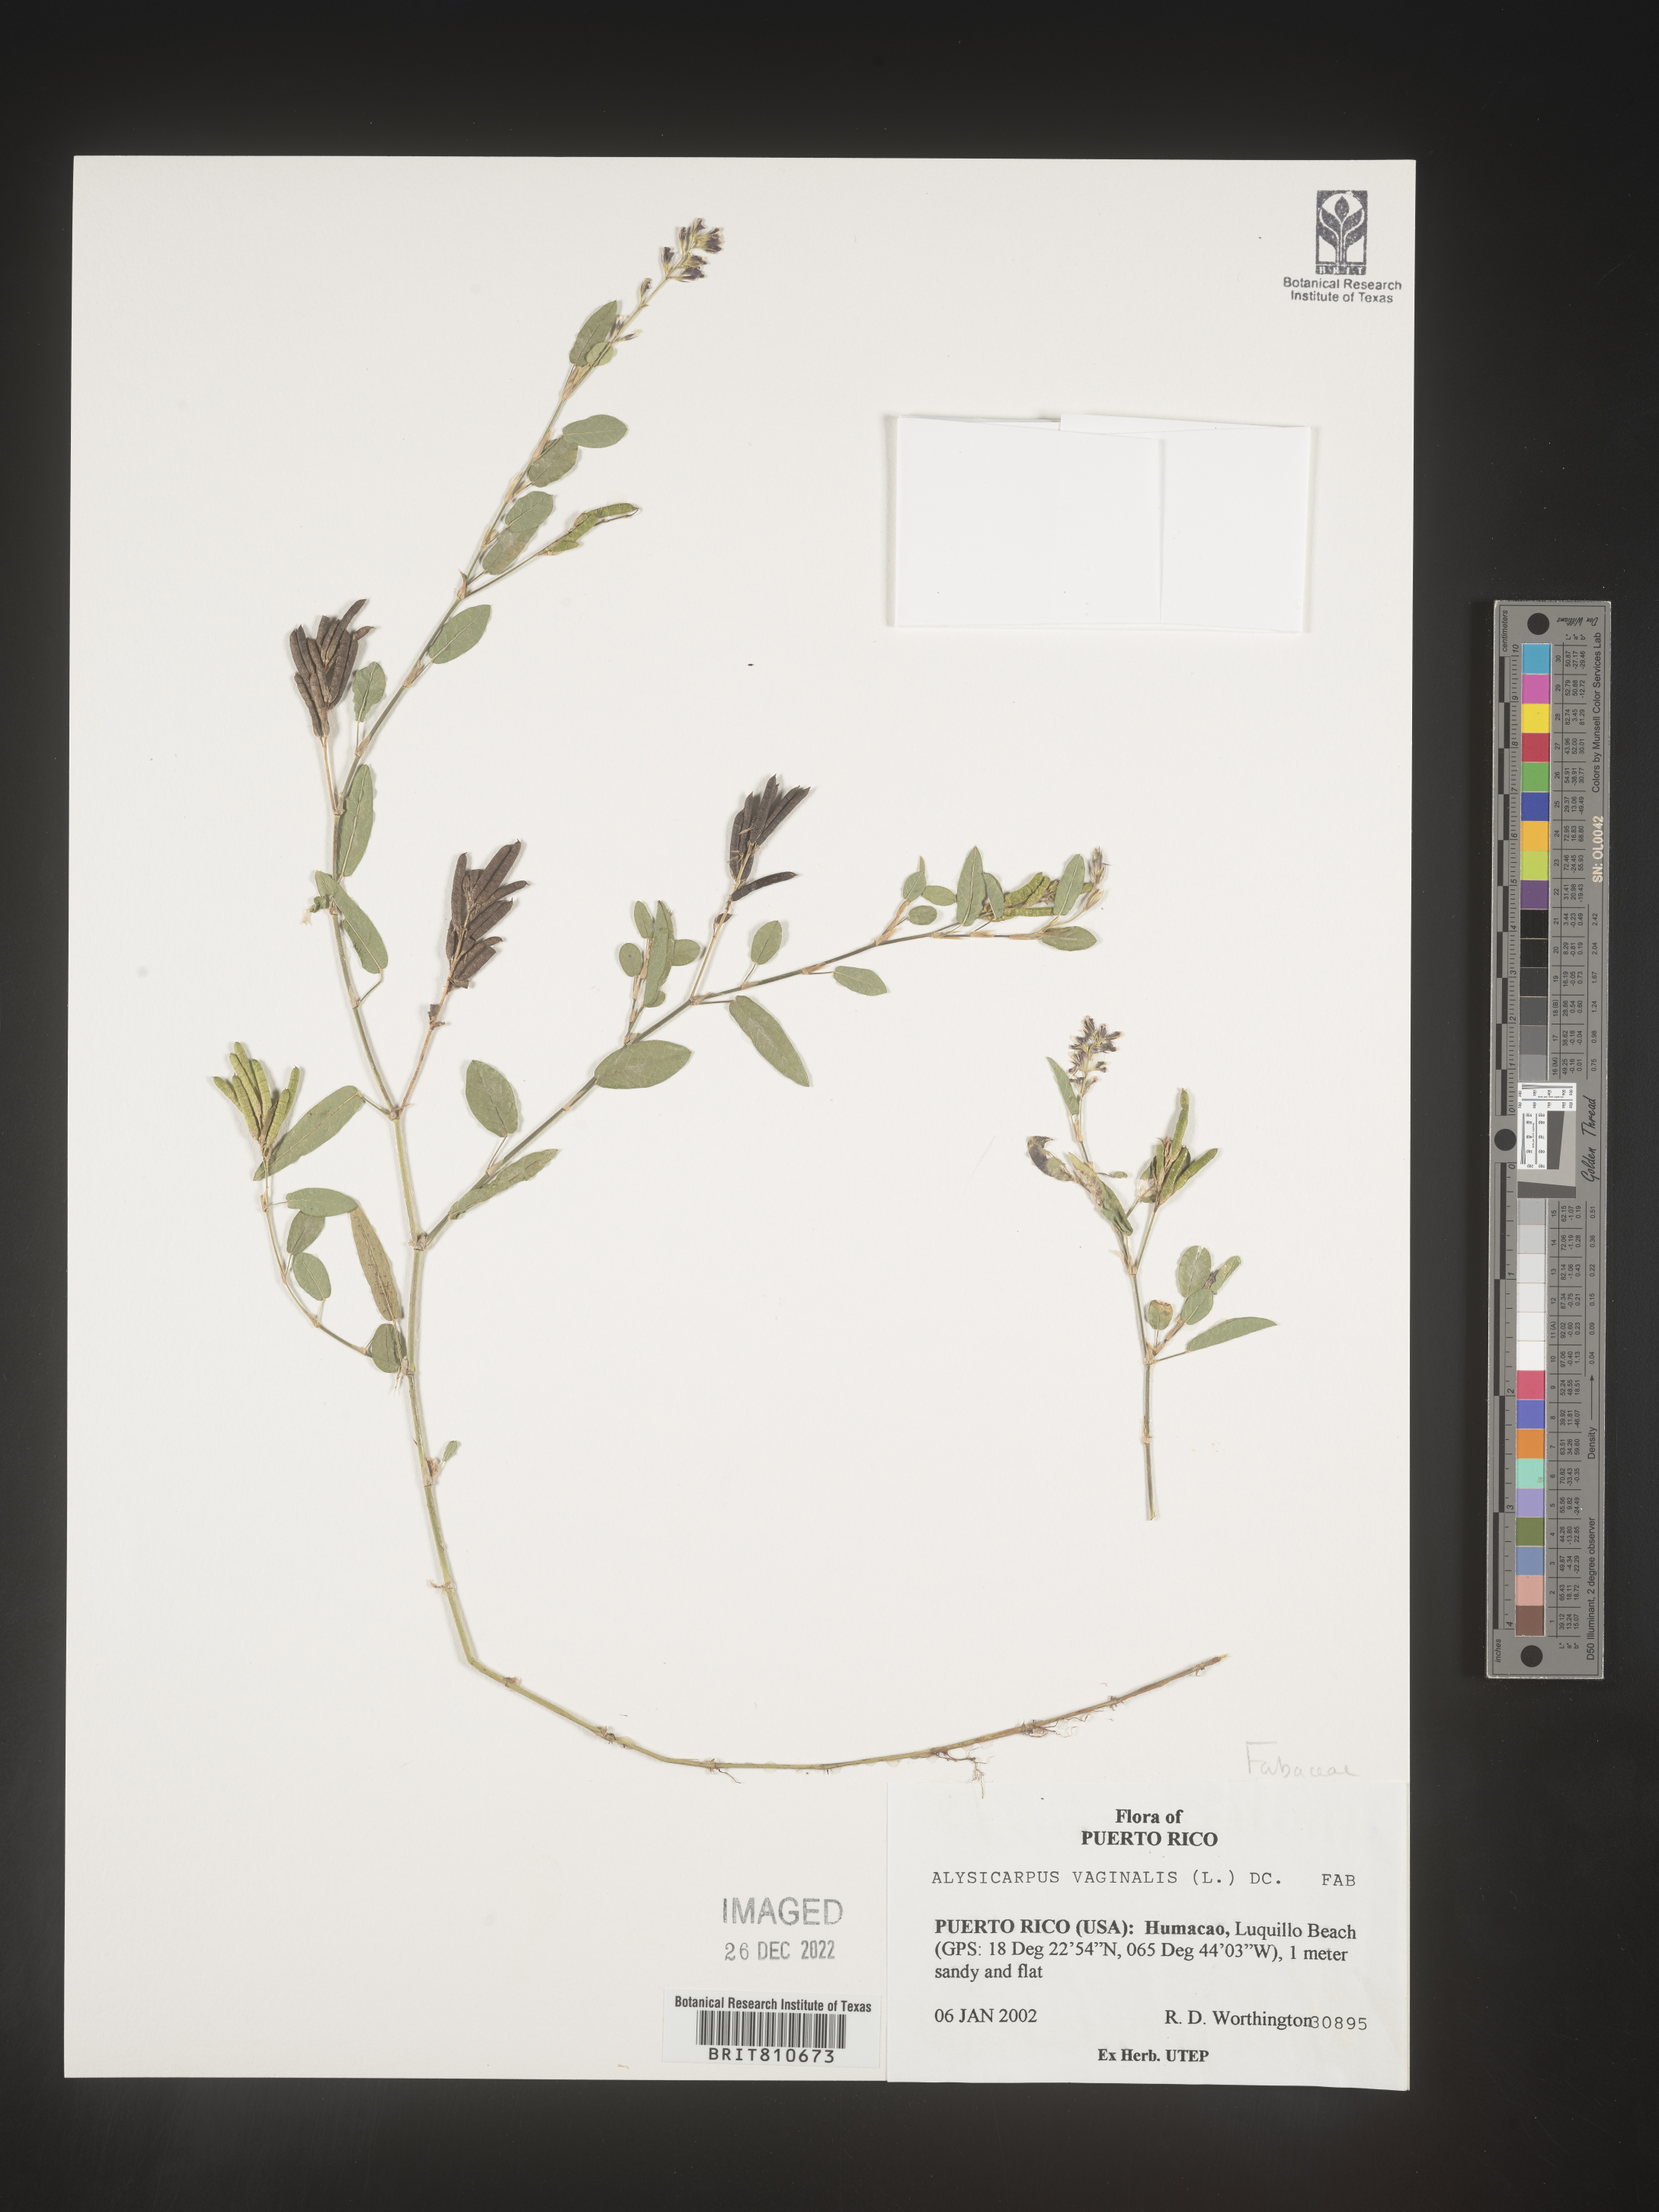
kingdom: Plantae
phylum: Tracheophyta
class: Magnoliopsida
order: Fabales
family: Fabaceae
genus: Alysicarpus
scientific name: Alysicarpus vaginalis
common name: White moneywort
